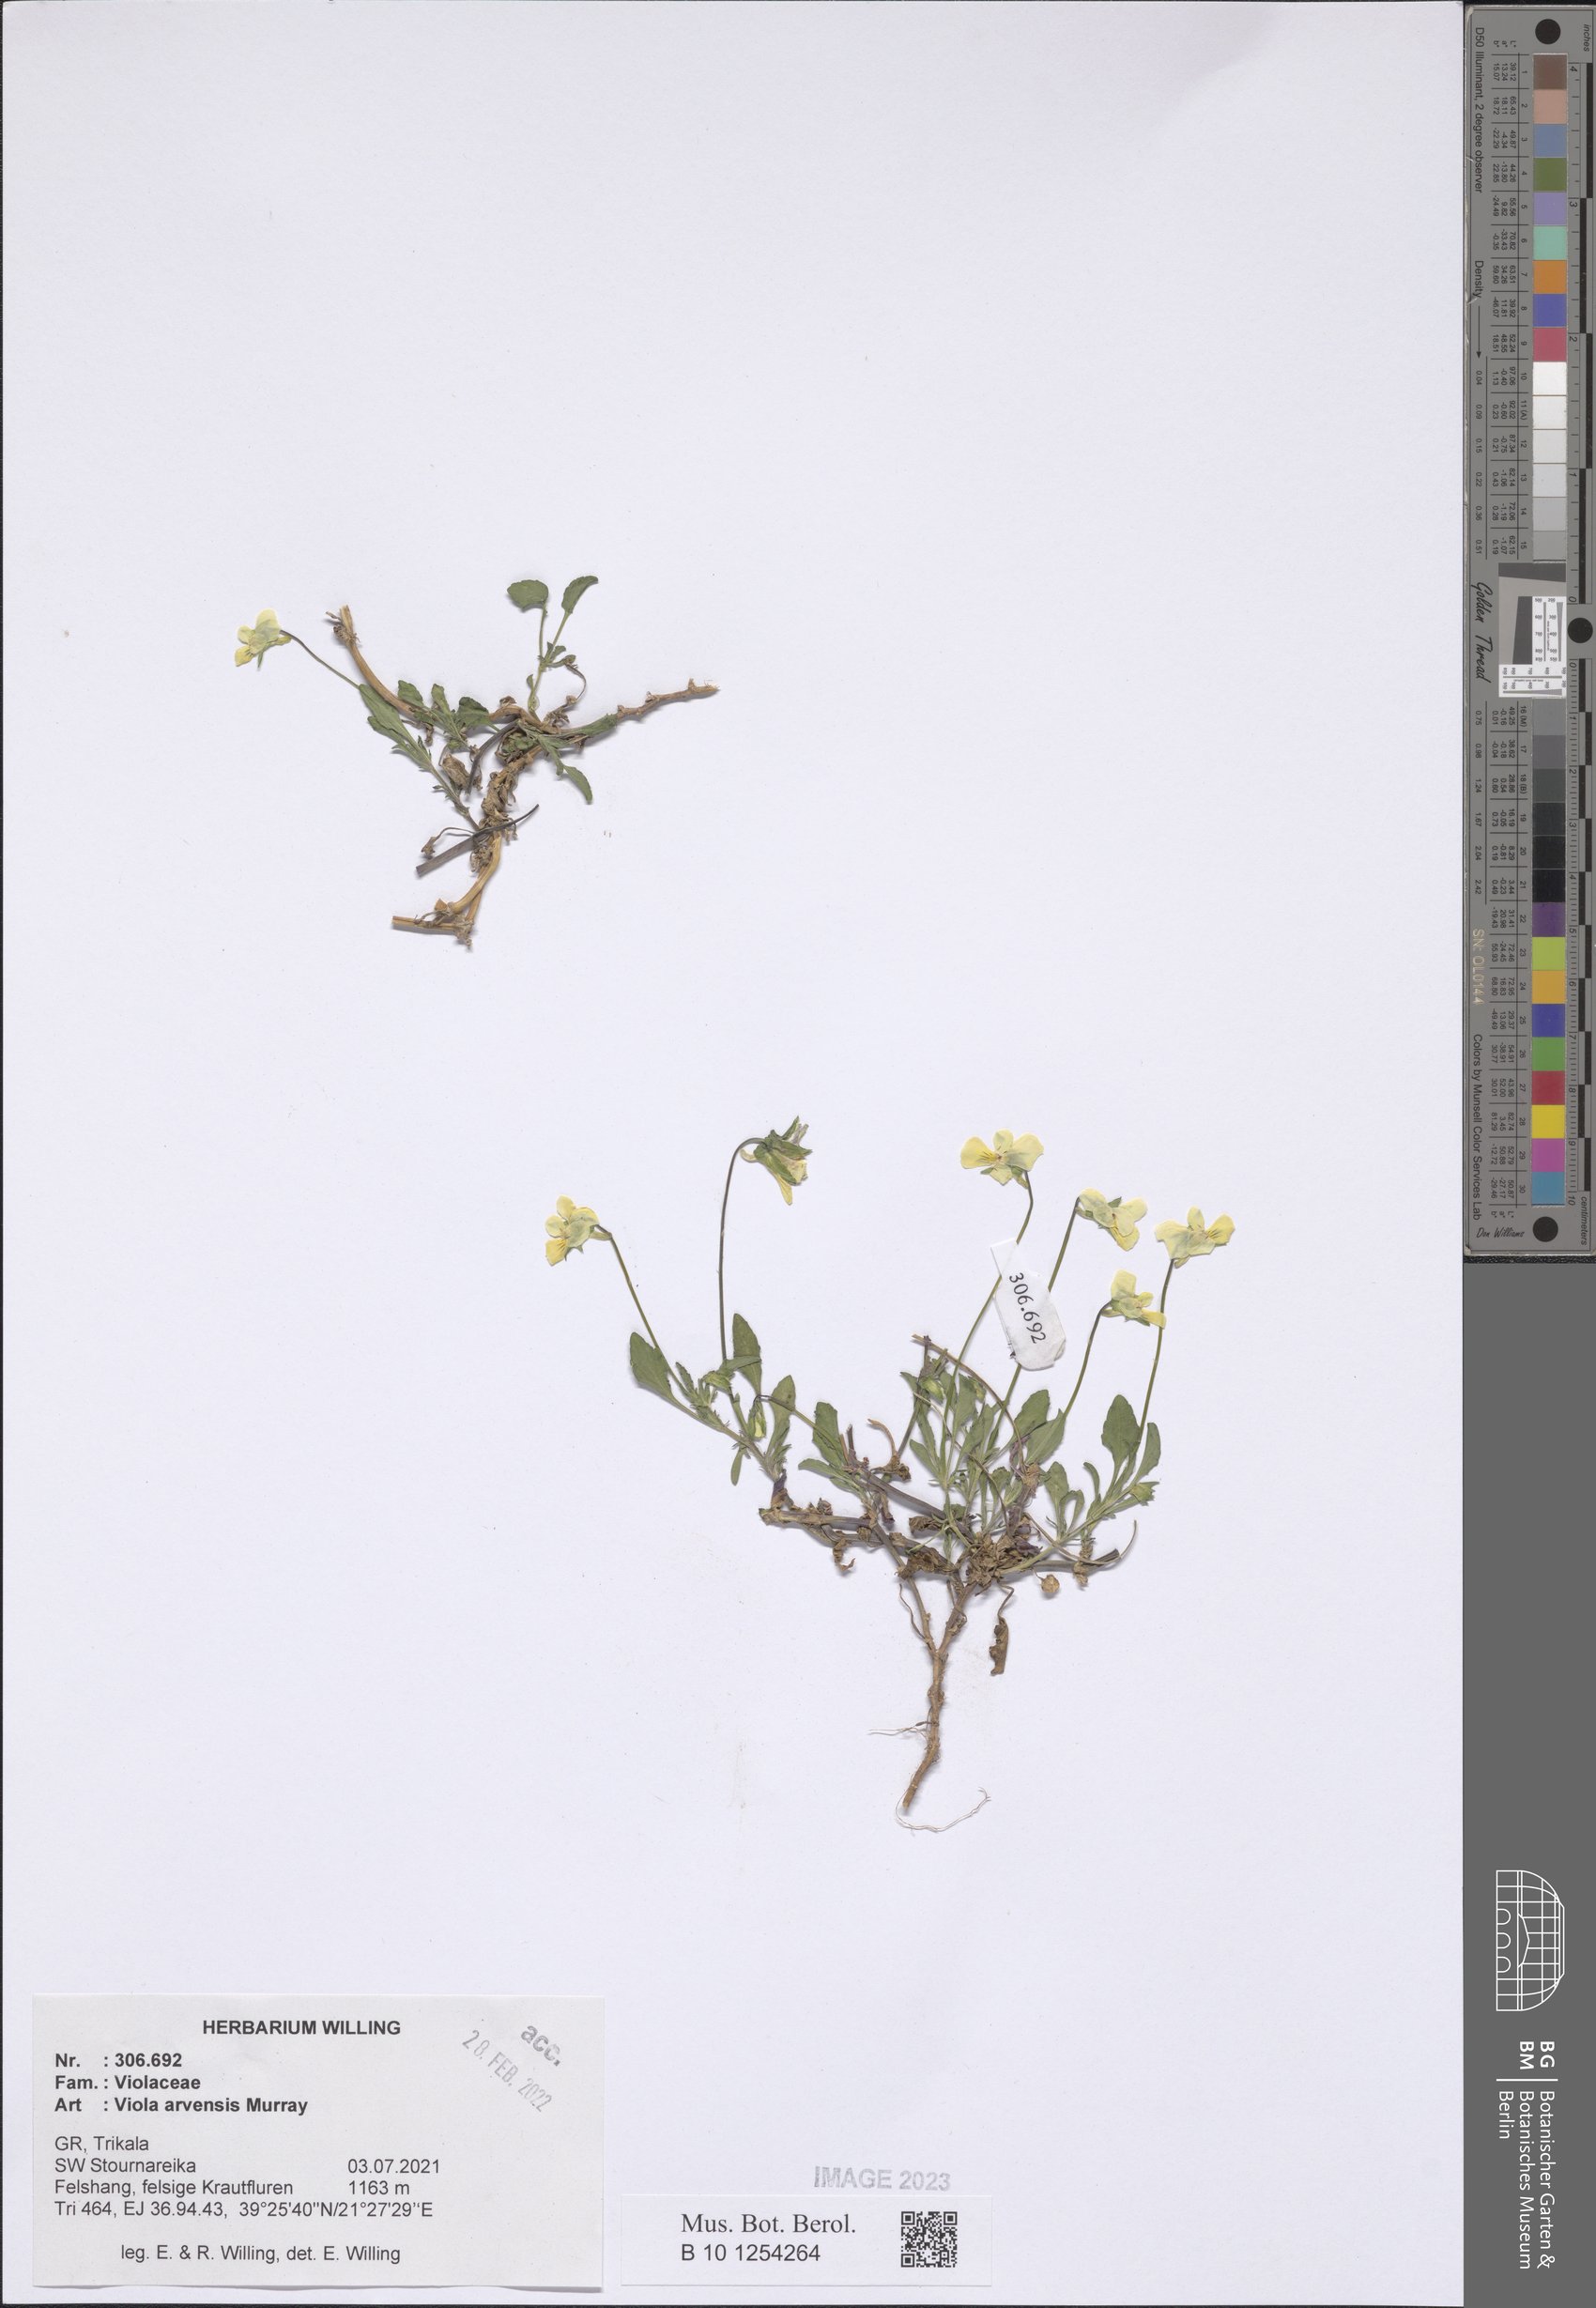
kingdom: Plantae
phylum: Tracheophyta
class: Magnoliopsida
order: Malpighiales
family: Violaceae
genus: Viola
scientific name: Viola arvensis
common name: Field pansy
